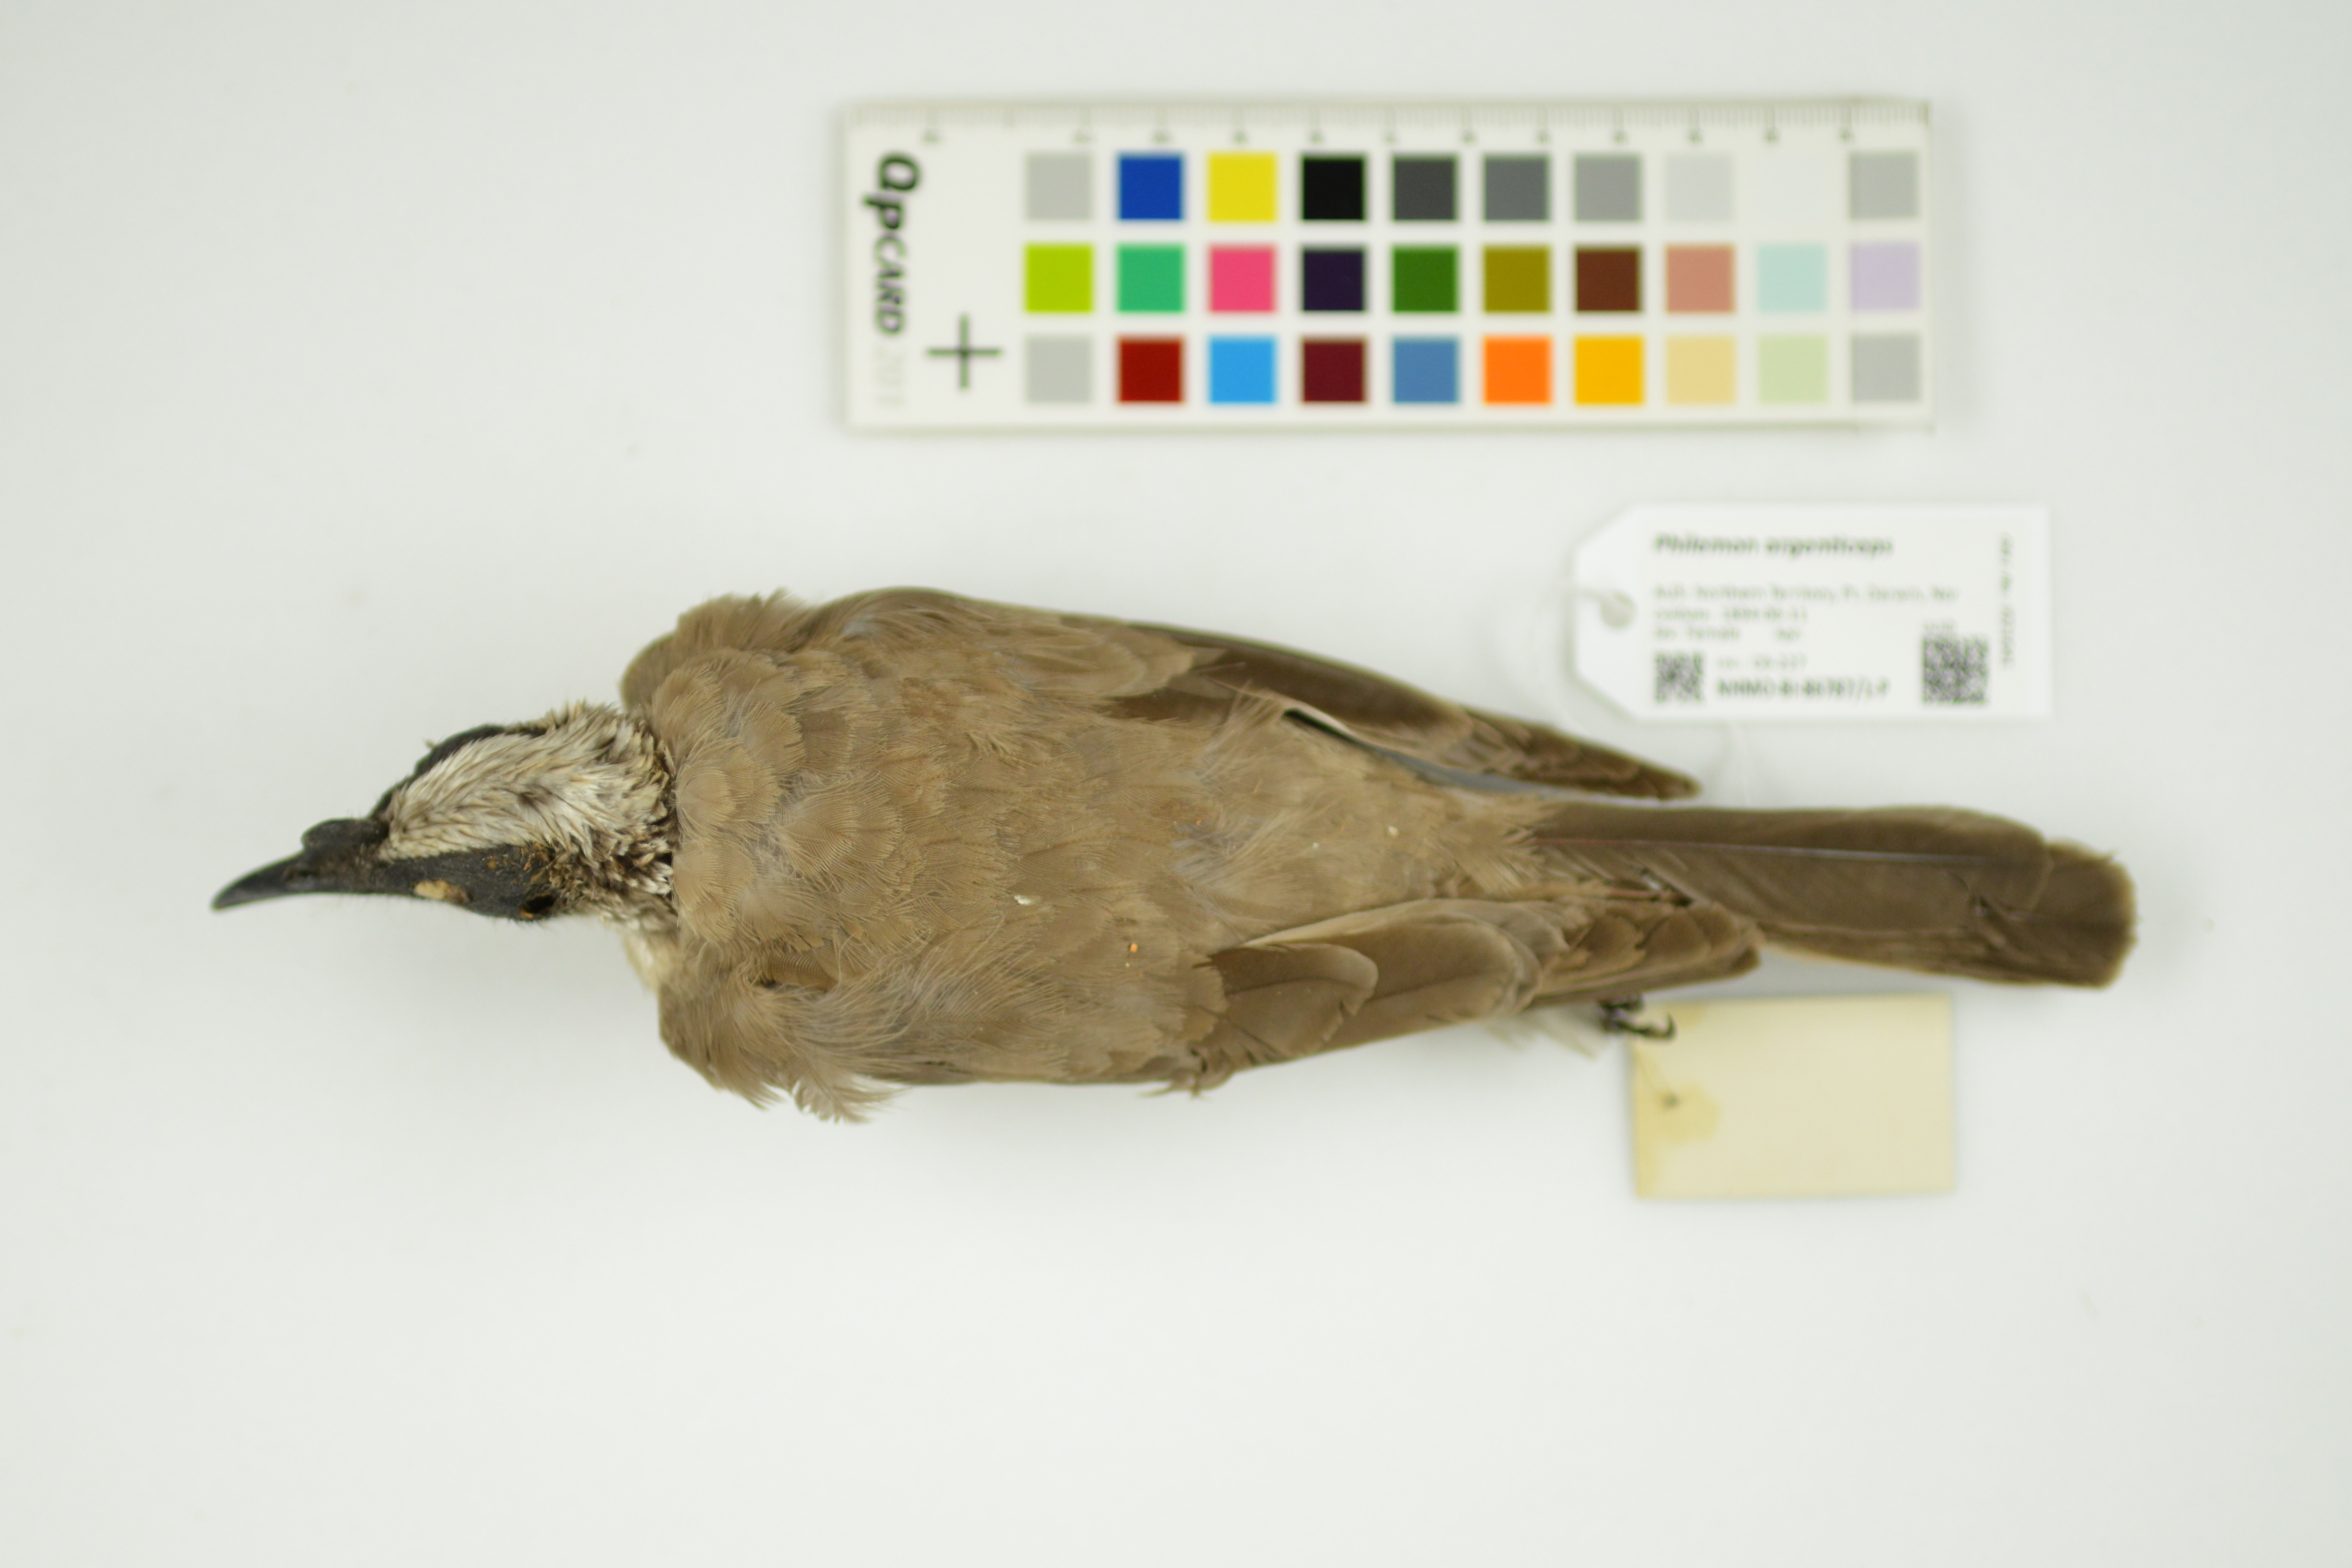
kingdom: Animalia
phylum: Chordata
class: Aves
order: Passeriformes
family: Meliphagidae
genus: Philemon
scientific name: Philemon argenticeps
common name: Silver-crowned friarbird
